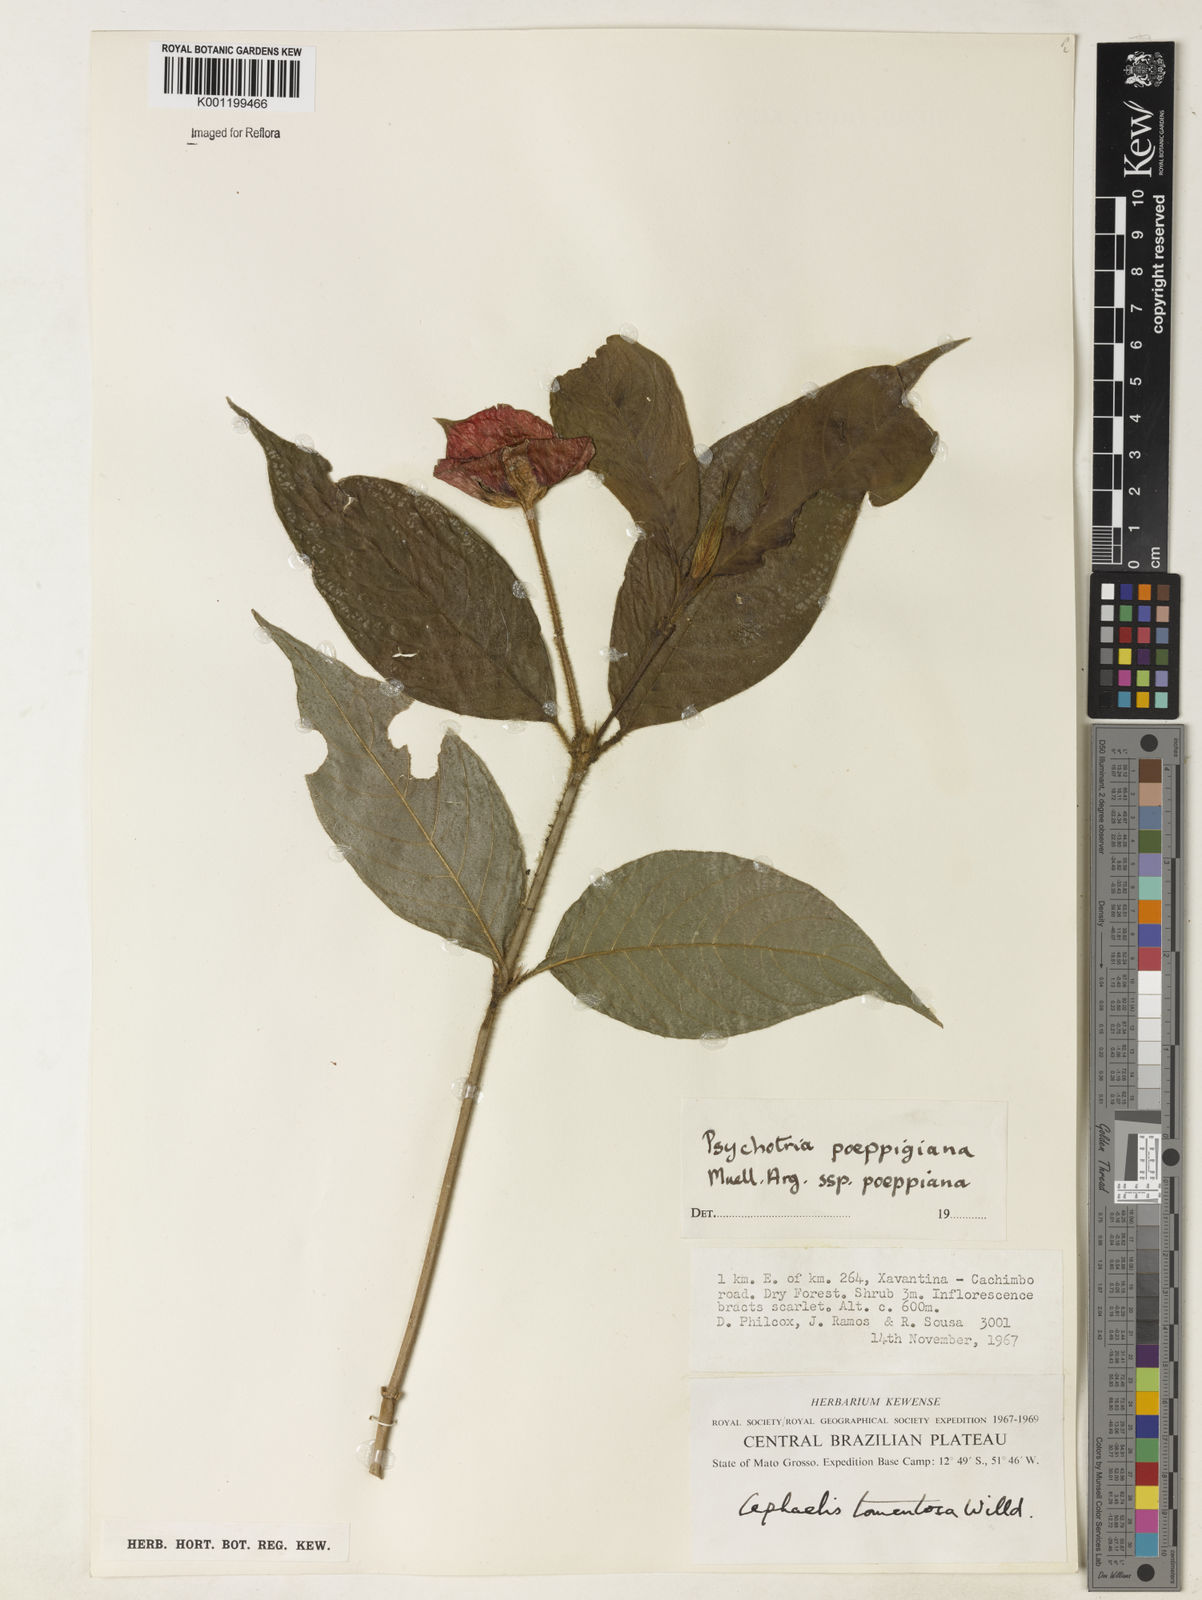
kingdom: Plantae
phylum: Tracheophyta
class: Magnoliopsida
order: Gentianales
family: Rubiaceae
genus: Psychotria
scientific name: Psychotria
